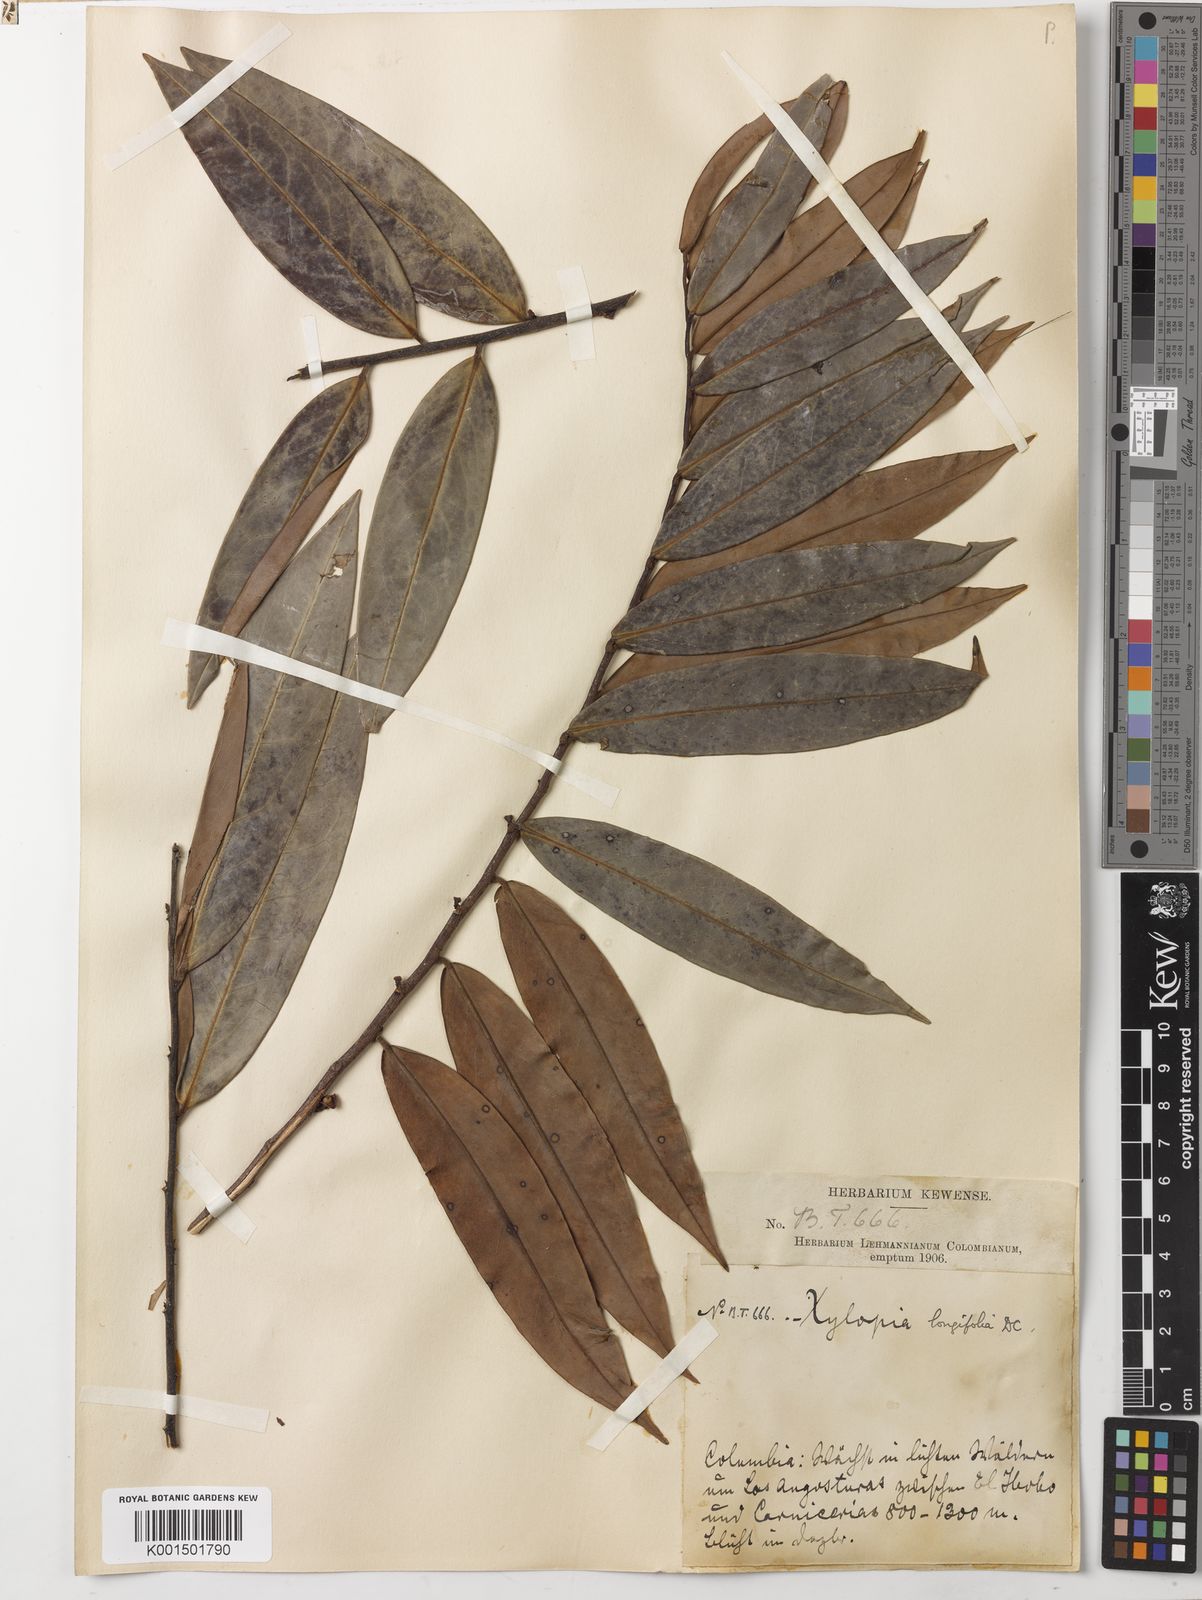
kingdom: Plantae
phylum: Tracheophyta
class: Magnoliopsida
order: Magnoliales
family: Annonaceae
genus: Xylopia
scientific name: Xylopia aromatica
